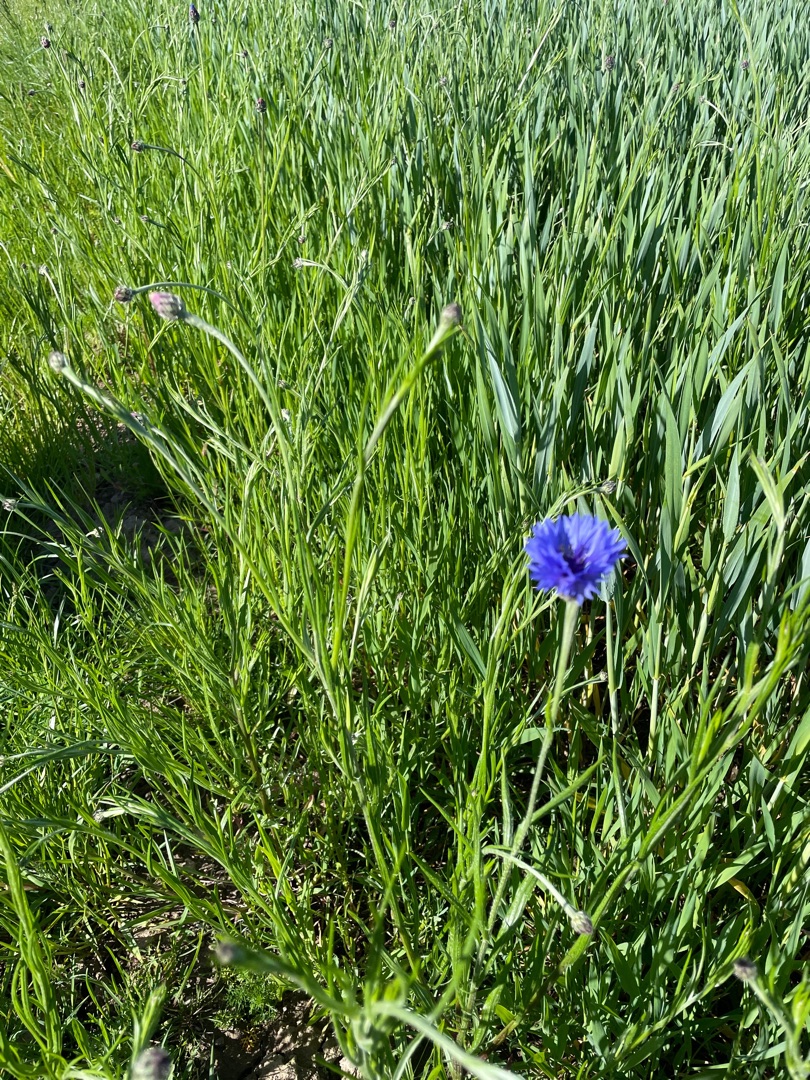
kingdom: Plantae
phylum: Tracheophyta
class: Magnoliopsida
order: Asterales
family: Asteraceae
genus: Centaurea
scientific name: Centaurea cyanus
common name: Kornblomst
